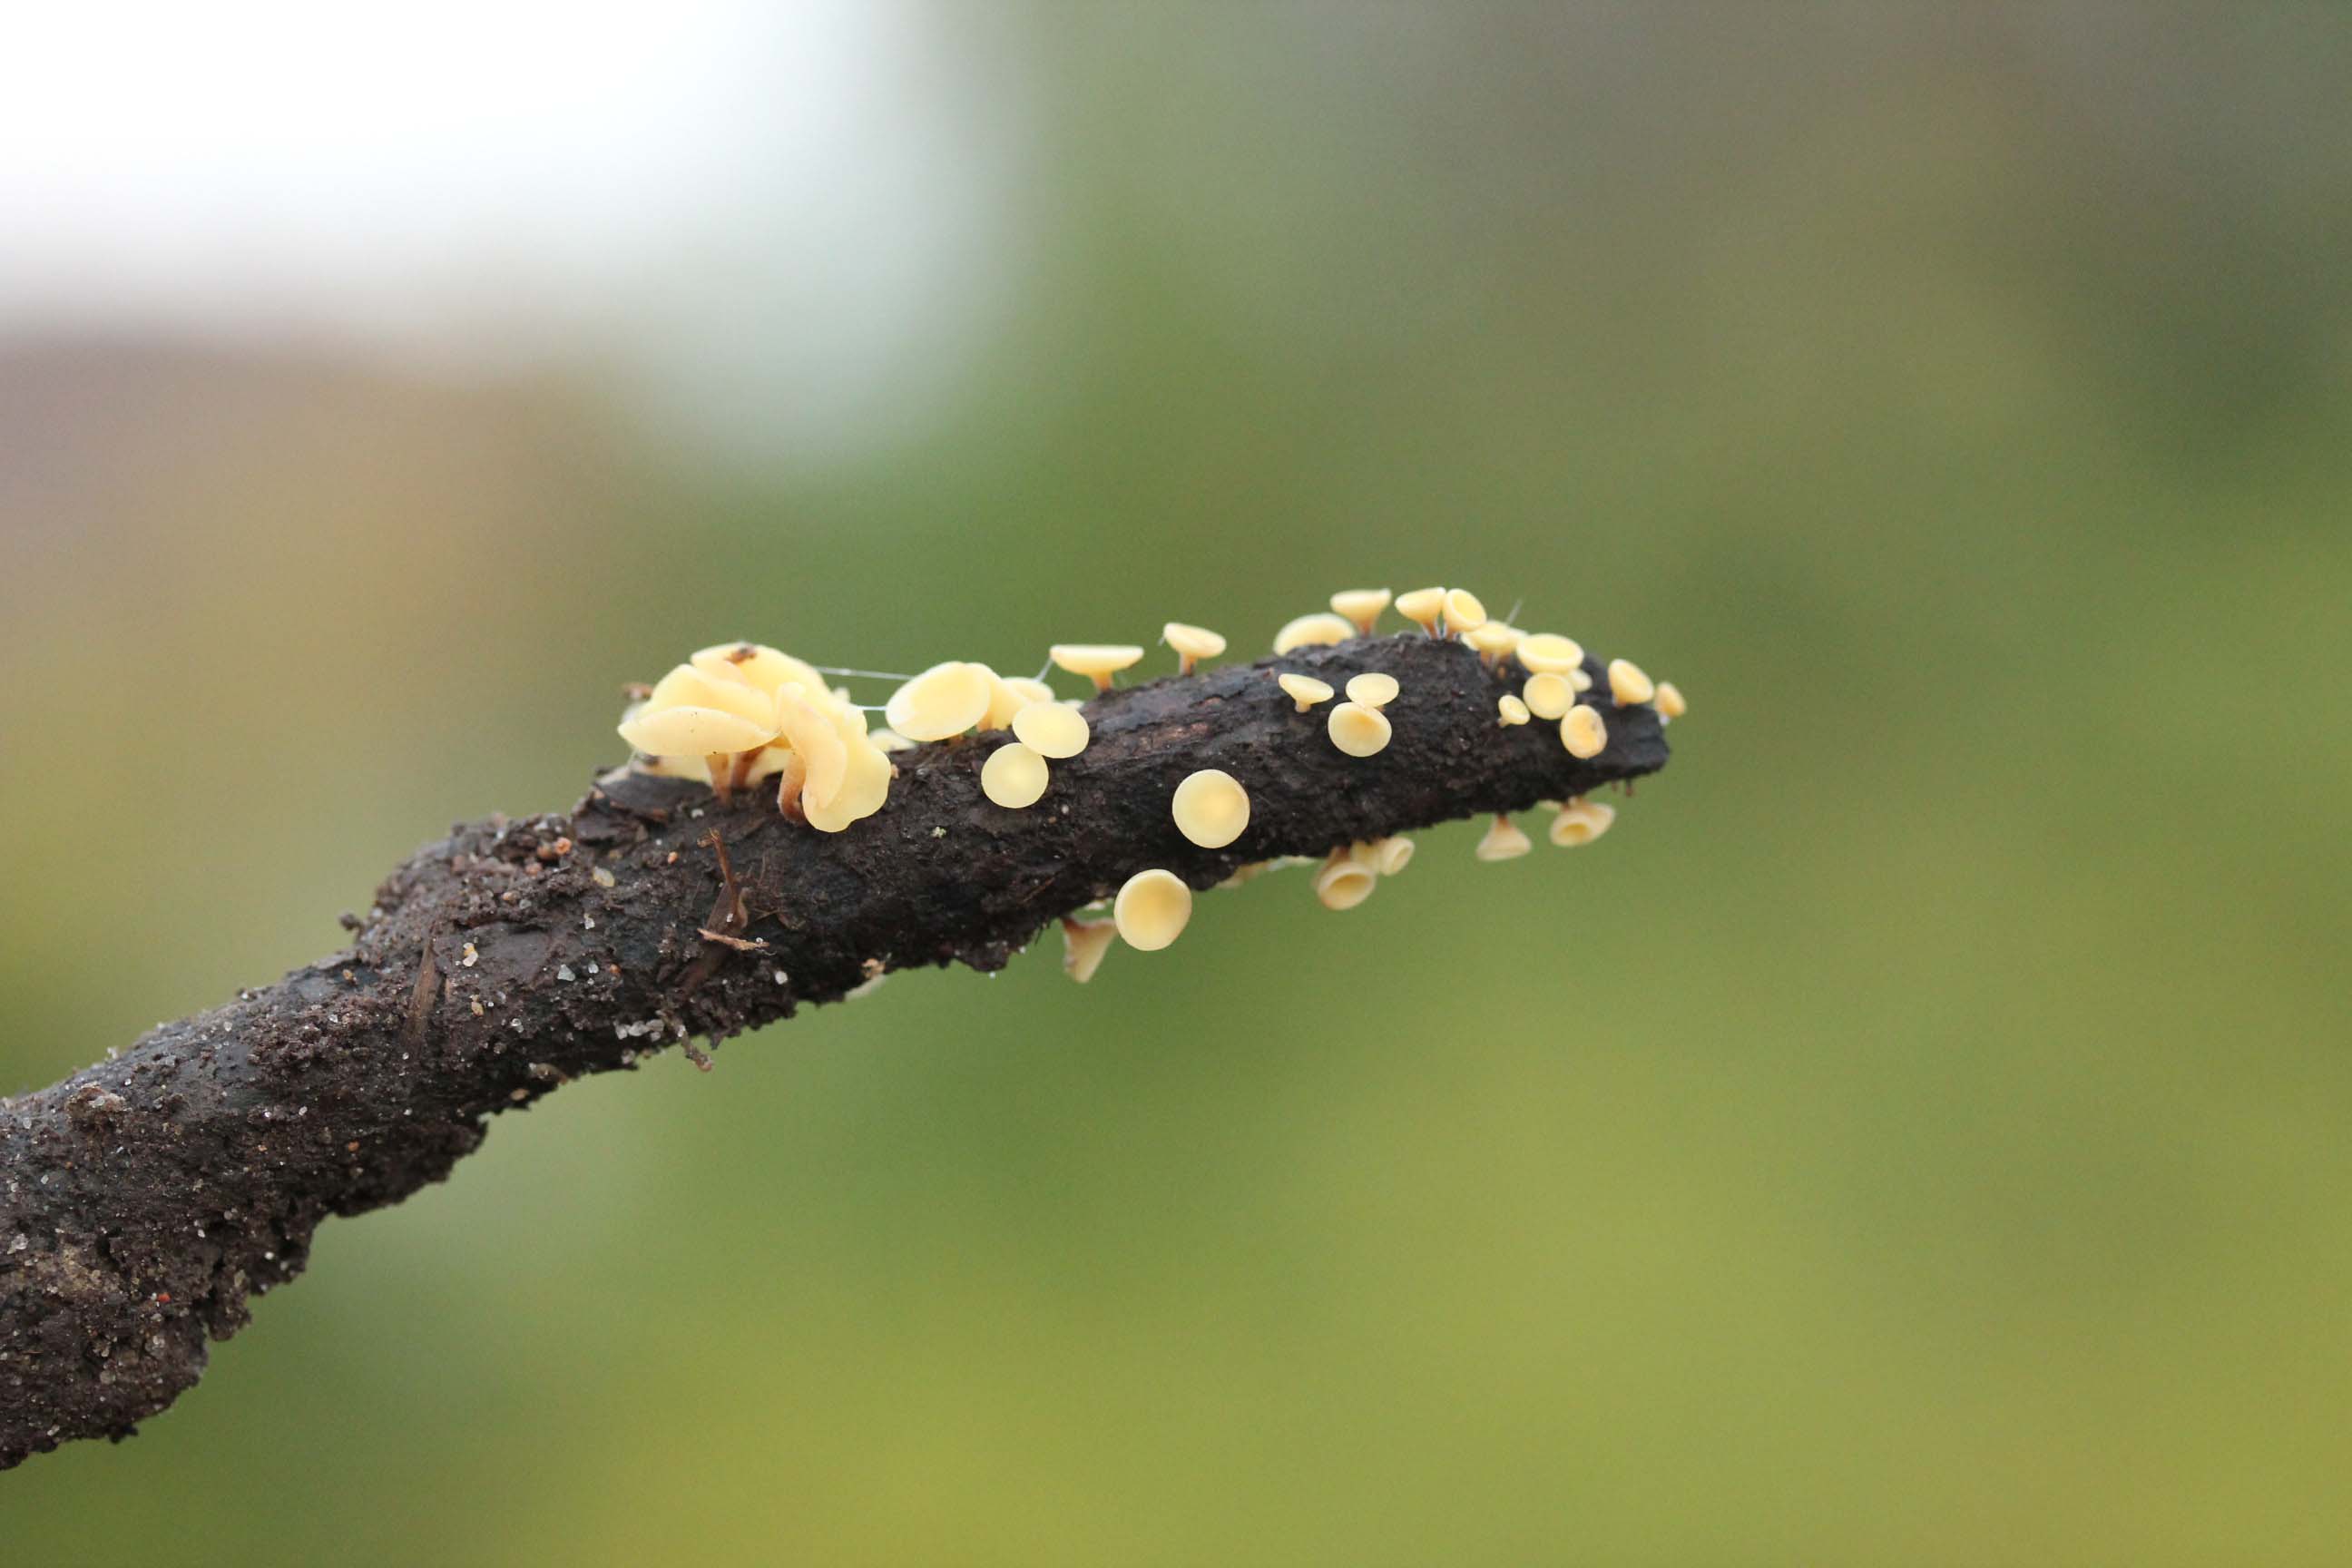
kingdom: Fungi
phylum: Ascomycota
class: Leotiomycetes
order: Helotiales
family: Helotiaceae
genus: Hymenoscyphus
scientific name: Hymenoscyphus serotinus
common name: krumsporet stilkskive
